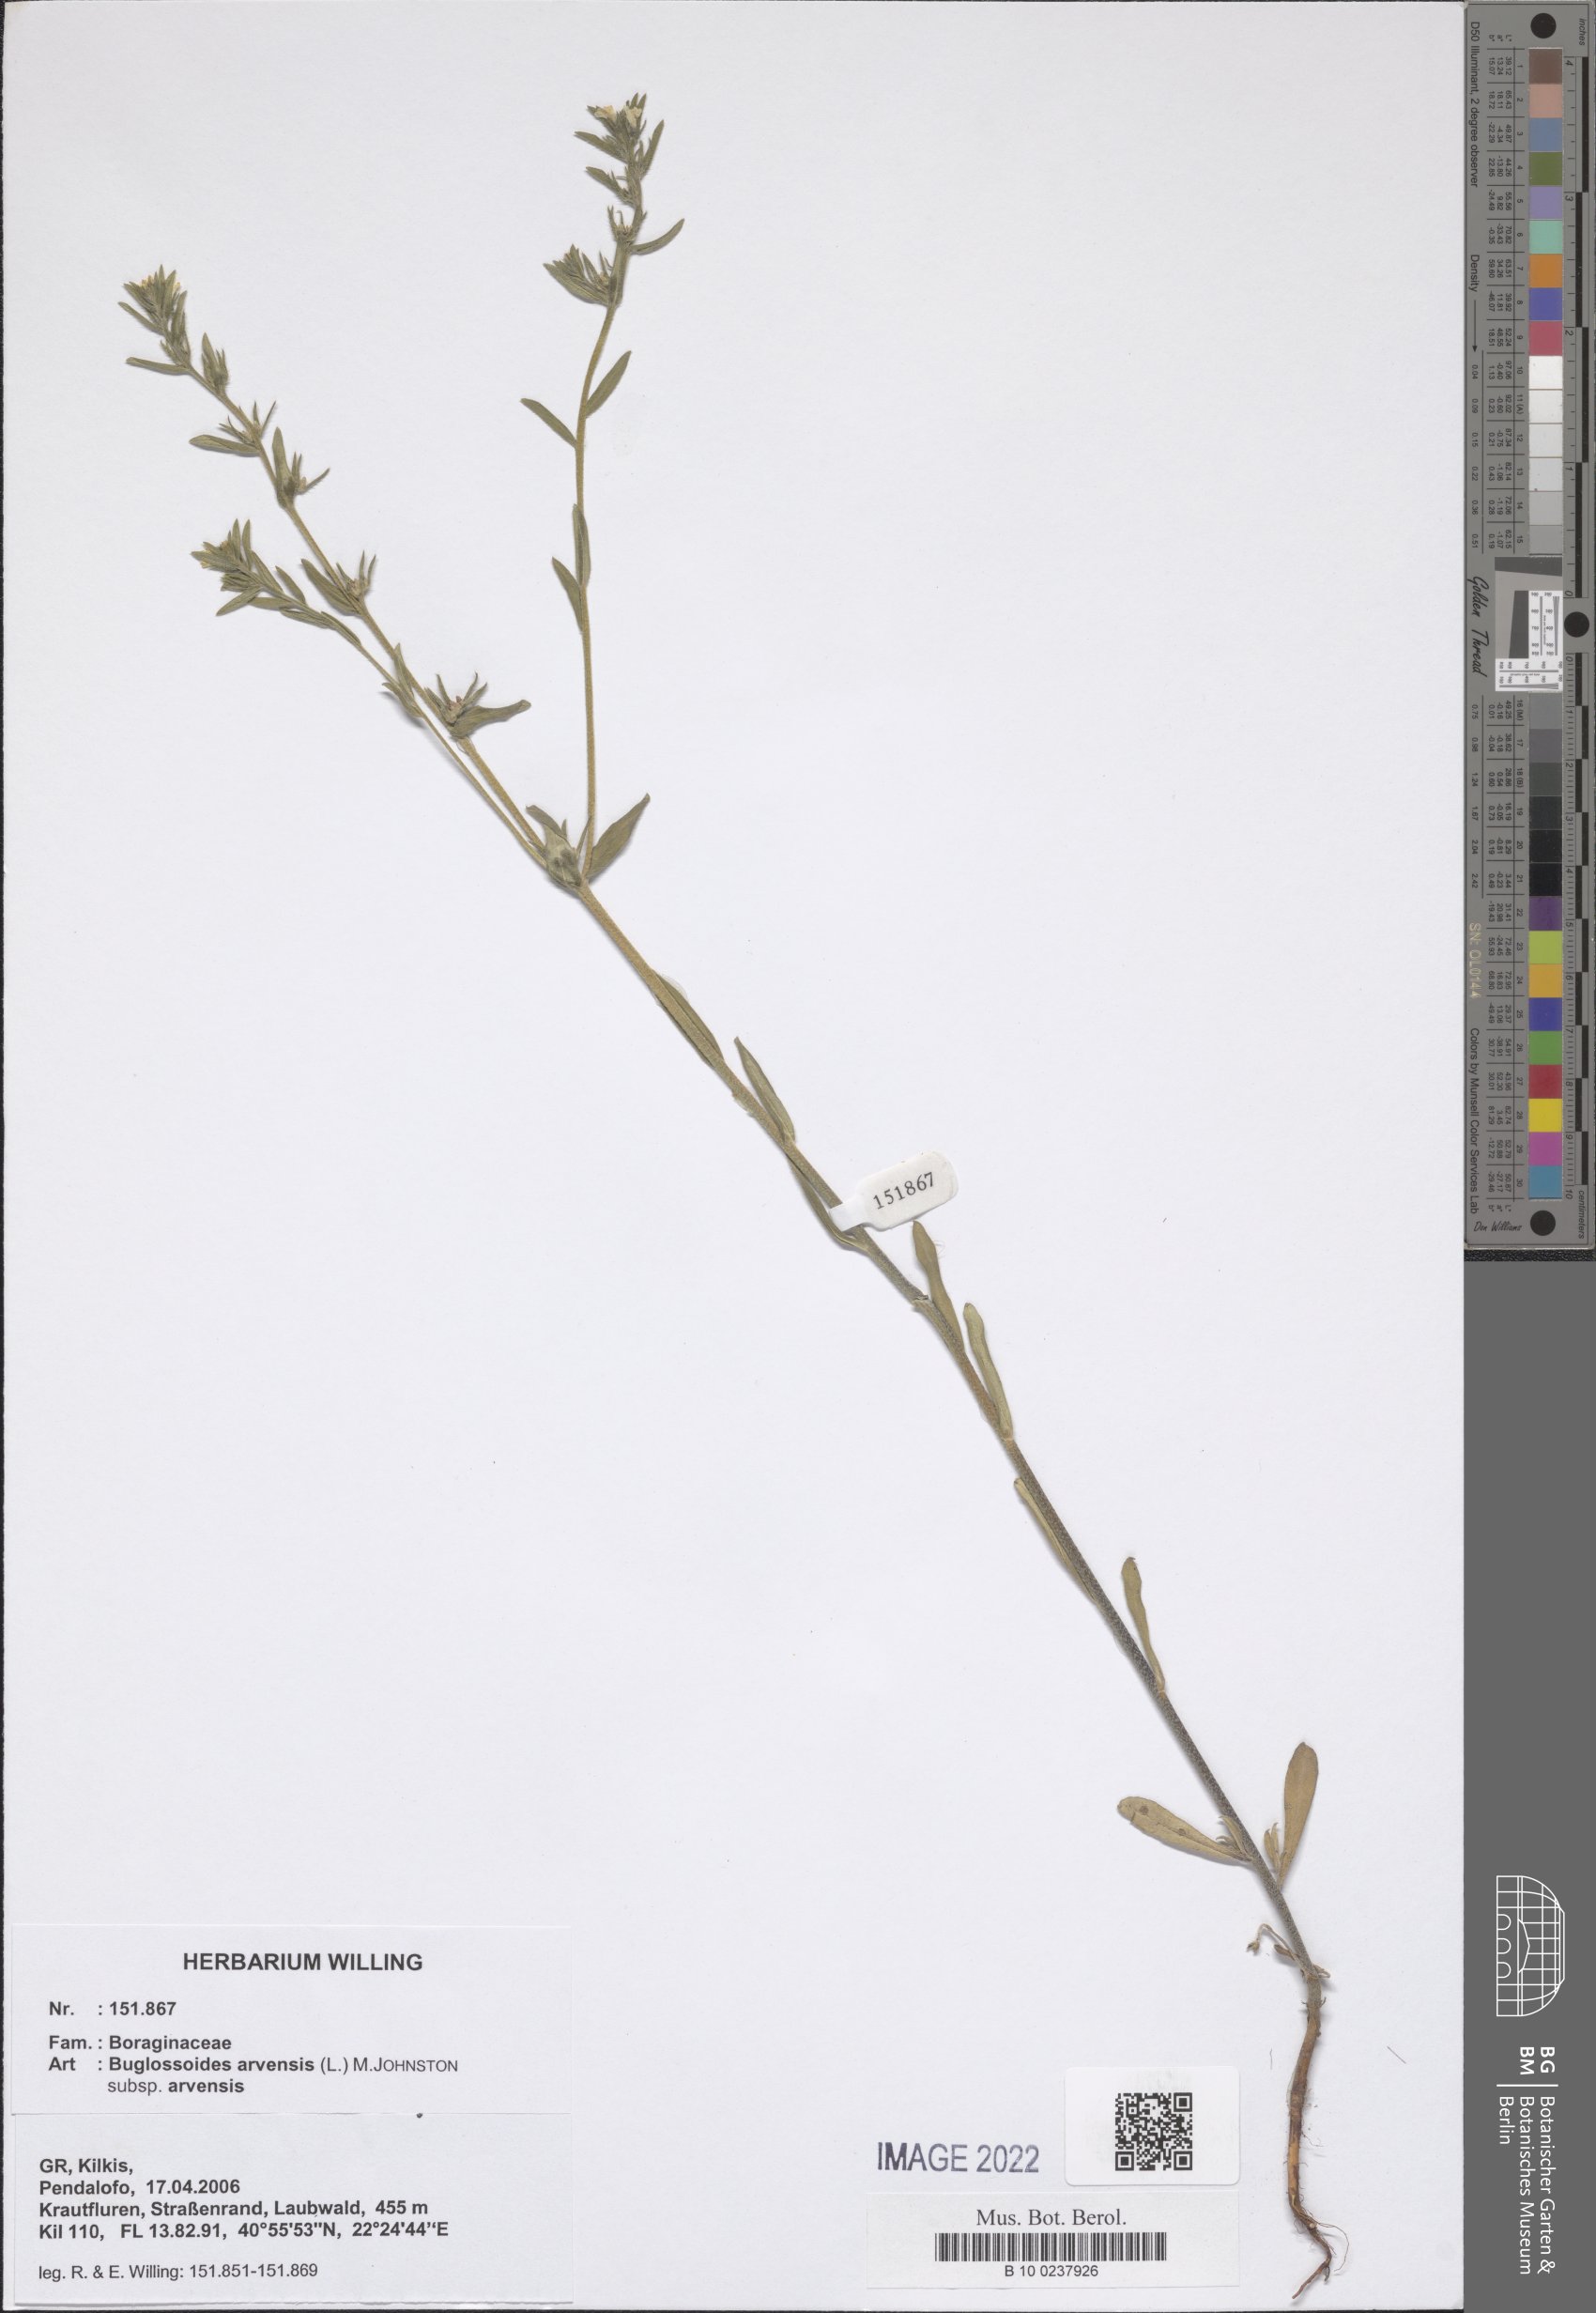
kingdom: Plantae
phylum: Tracheophyta
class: Magnoliopsida
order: Boraginales
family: Boraginaceae
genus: Buglossoides
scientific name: Buglossoides arvensis
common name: Corn gromwell
